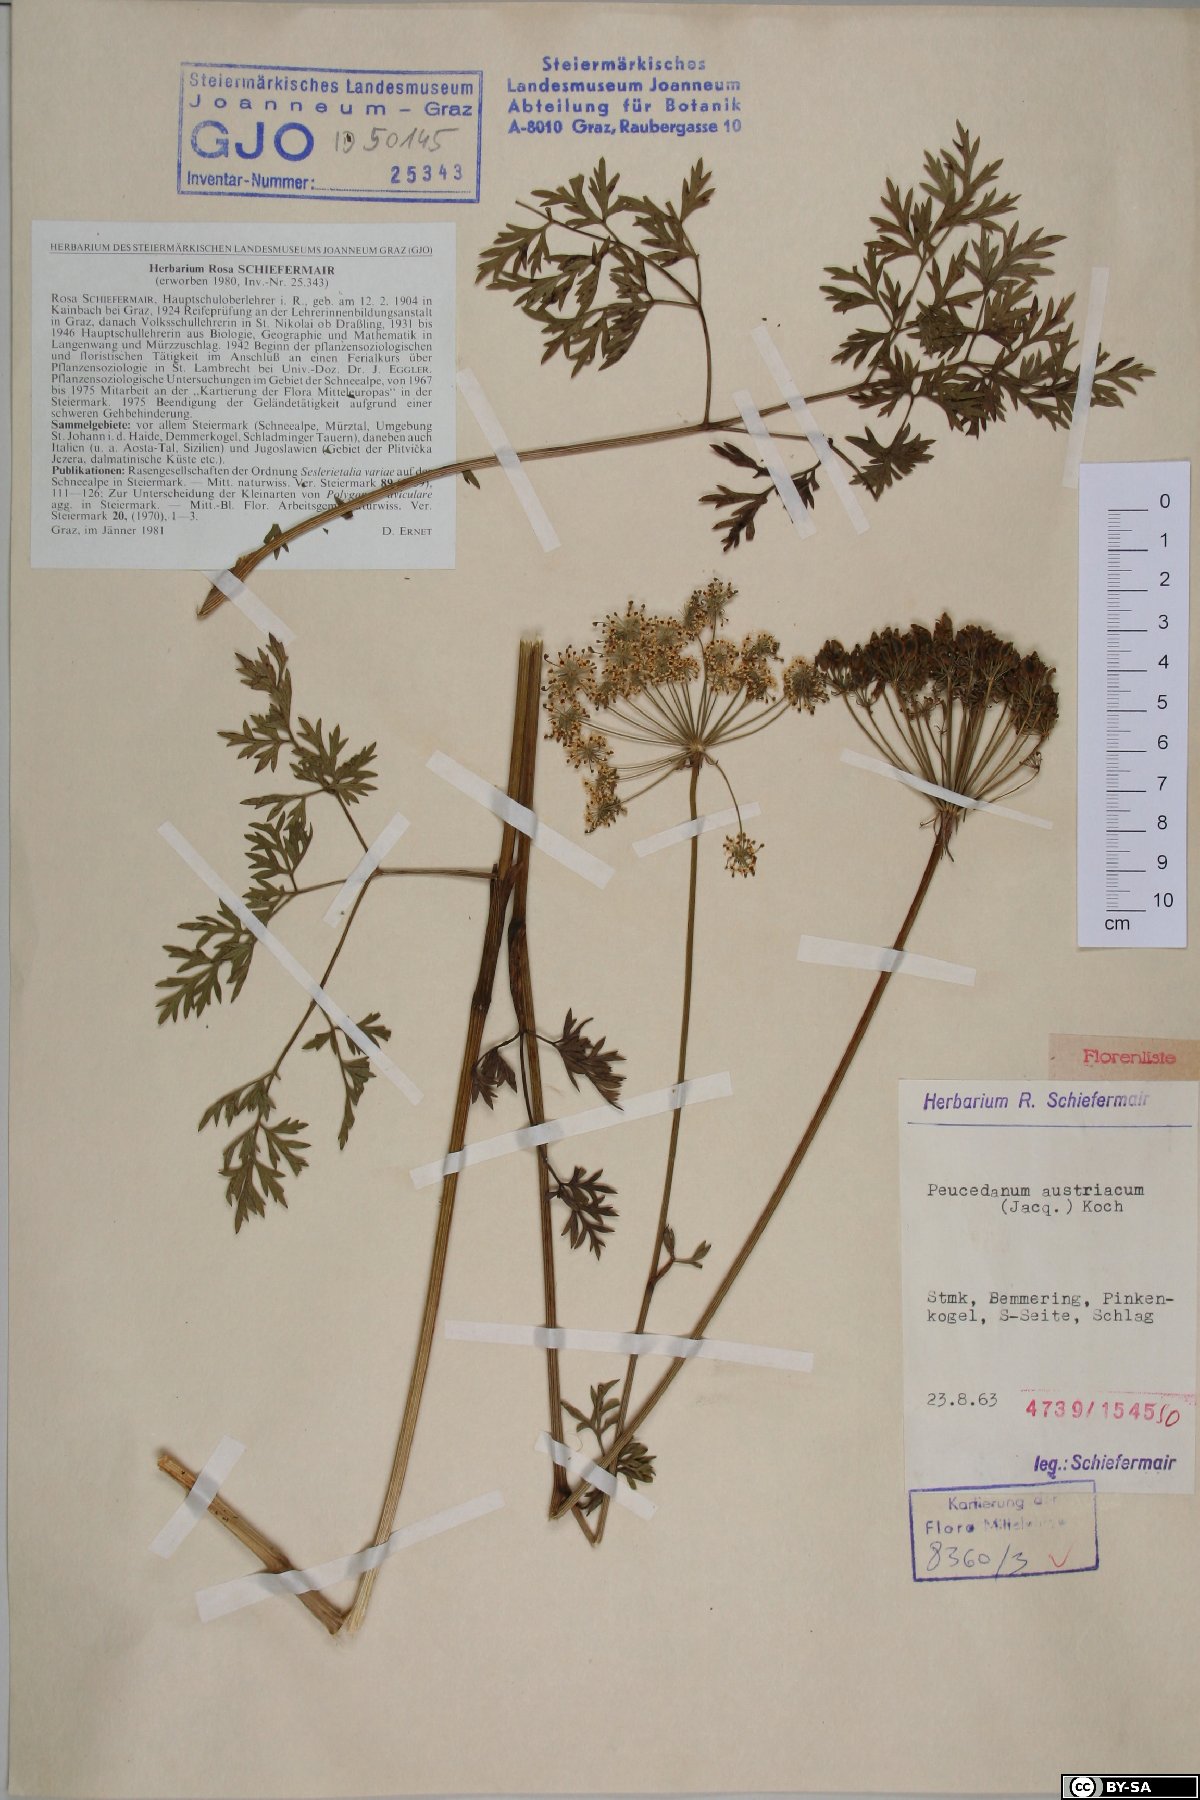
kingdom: Plantae
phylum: Tracheophyta
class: Magnoliopsida
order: Apiales
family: Apiaceae
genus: Peucedanum
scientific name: Peucedanum austriacum
